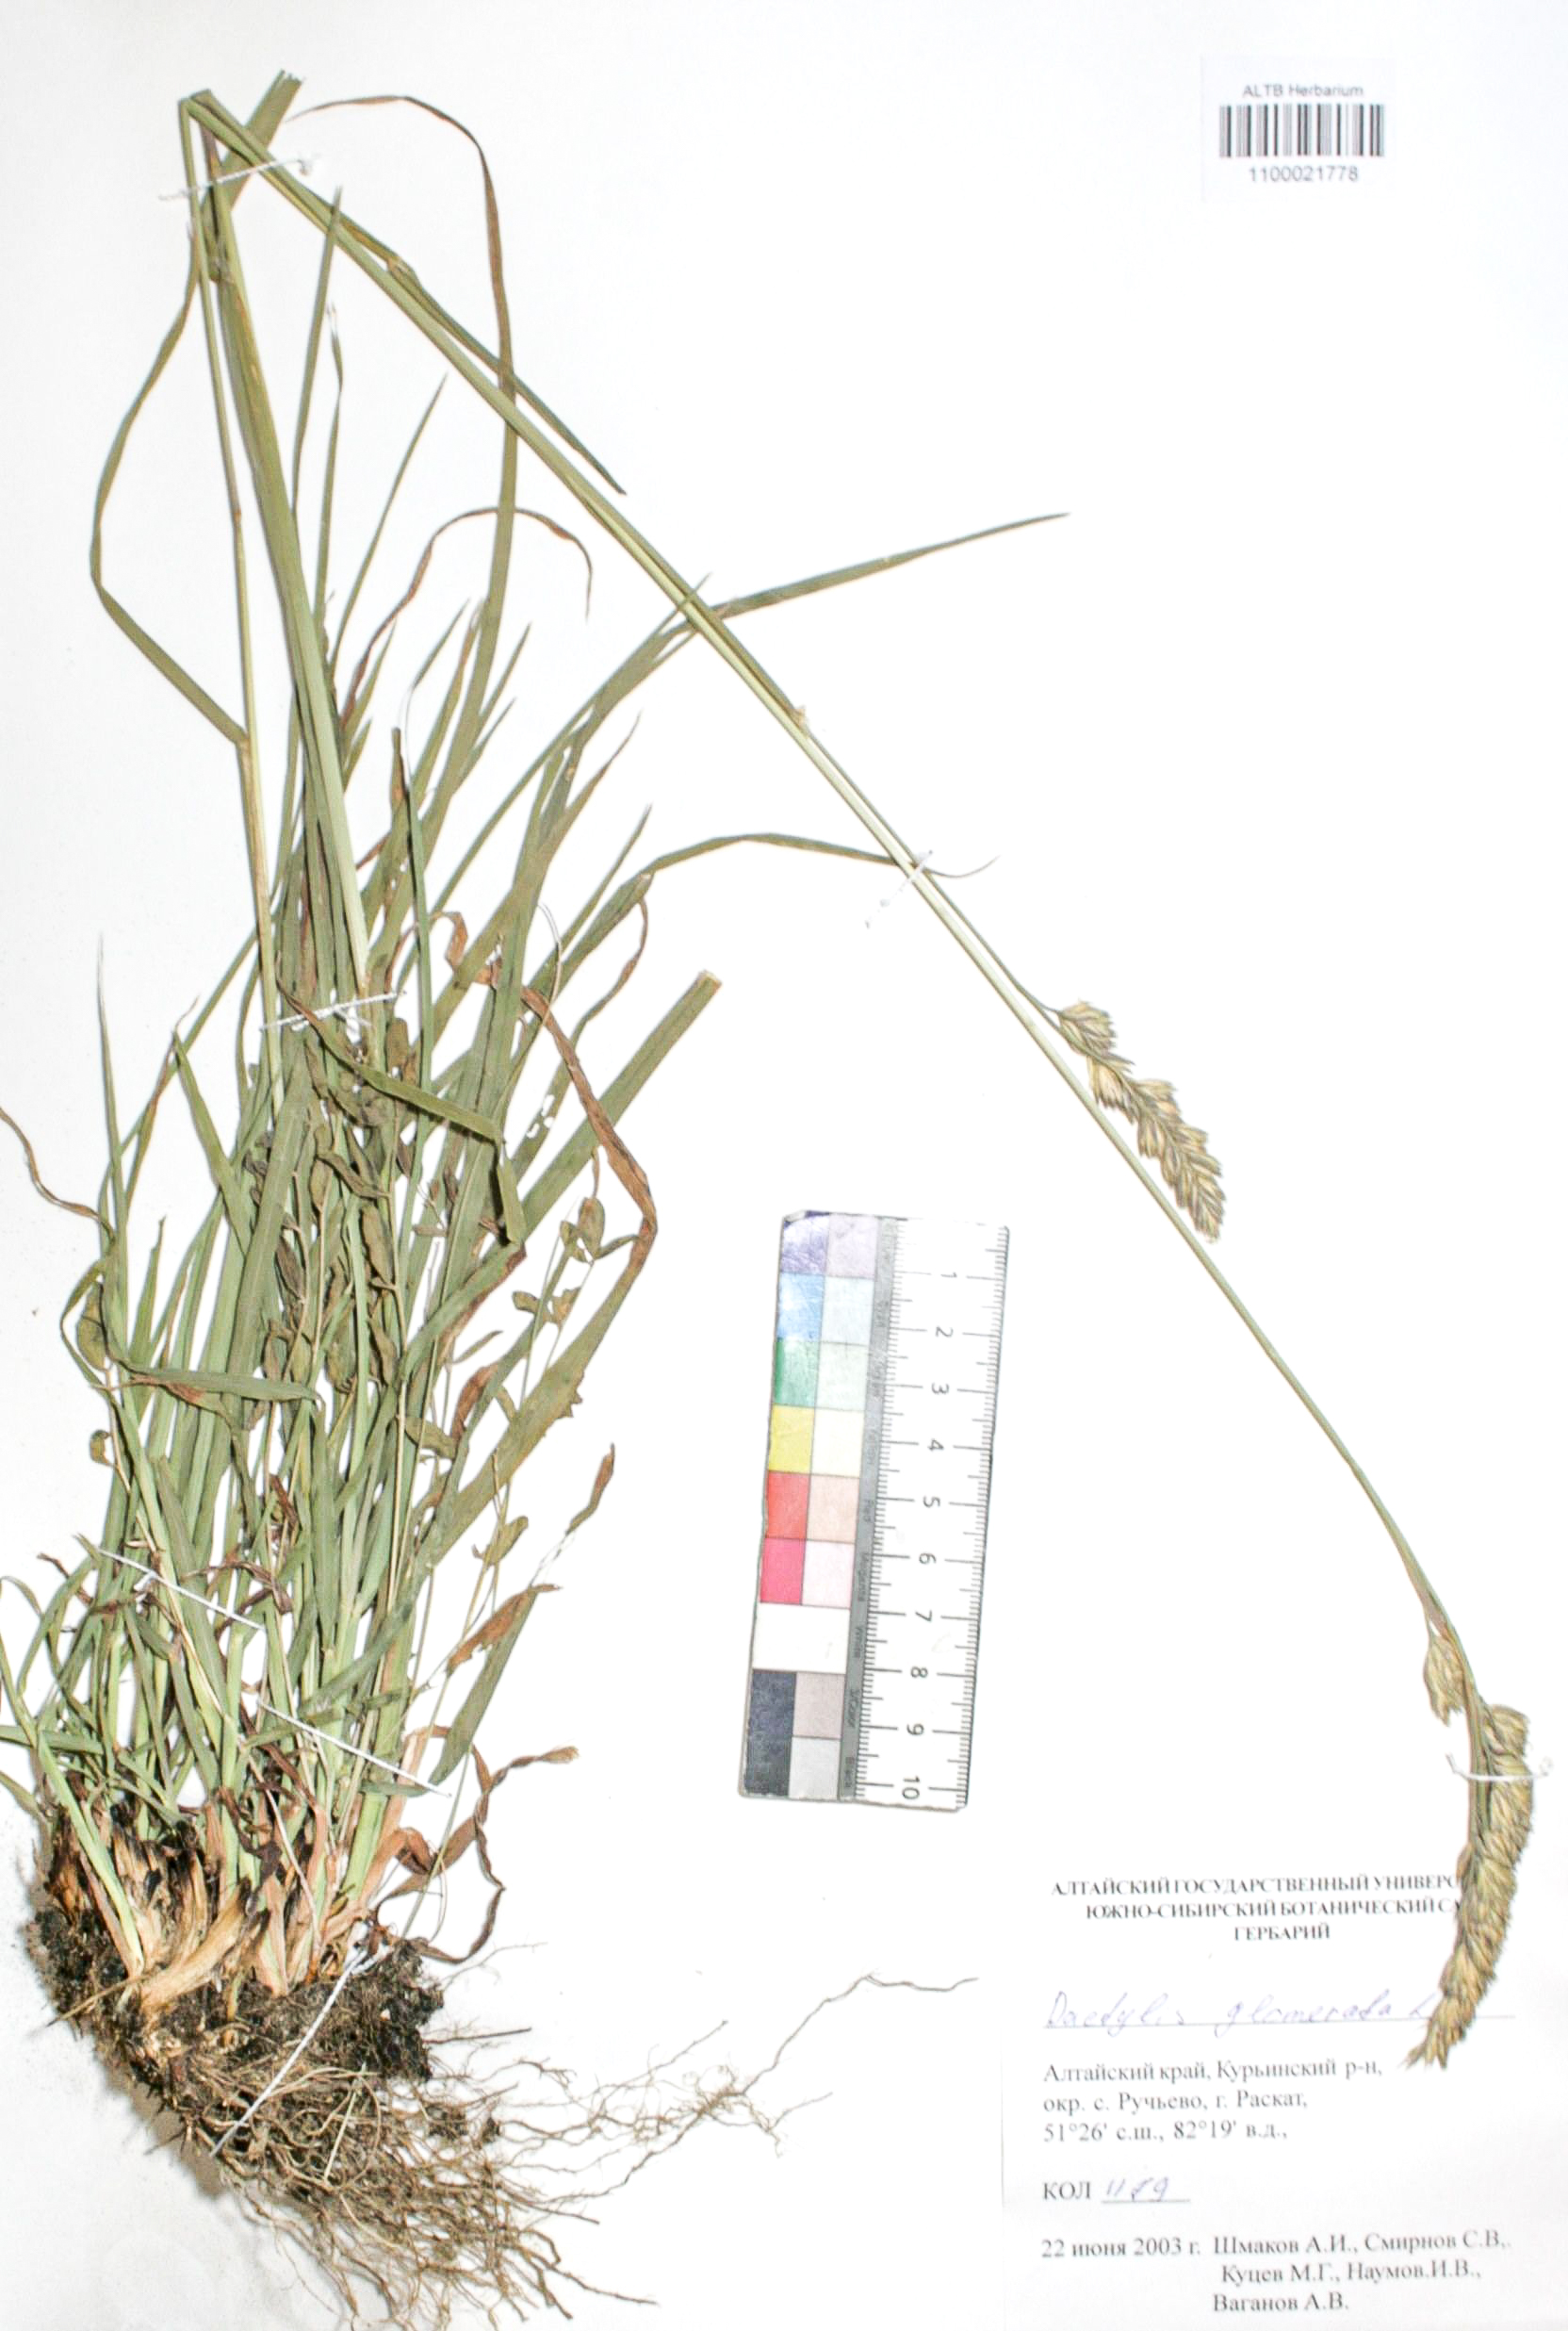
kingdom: Plantae
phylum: Tracheophyta
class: Liliopsida
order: Poales
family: Poaceae
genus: Dactylis
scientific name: Dactylis glomerata
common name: Orchardgrass
